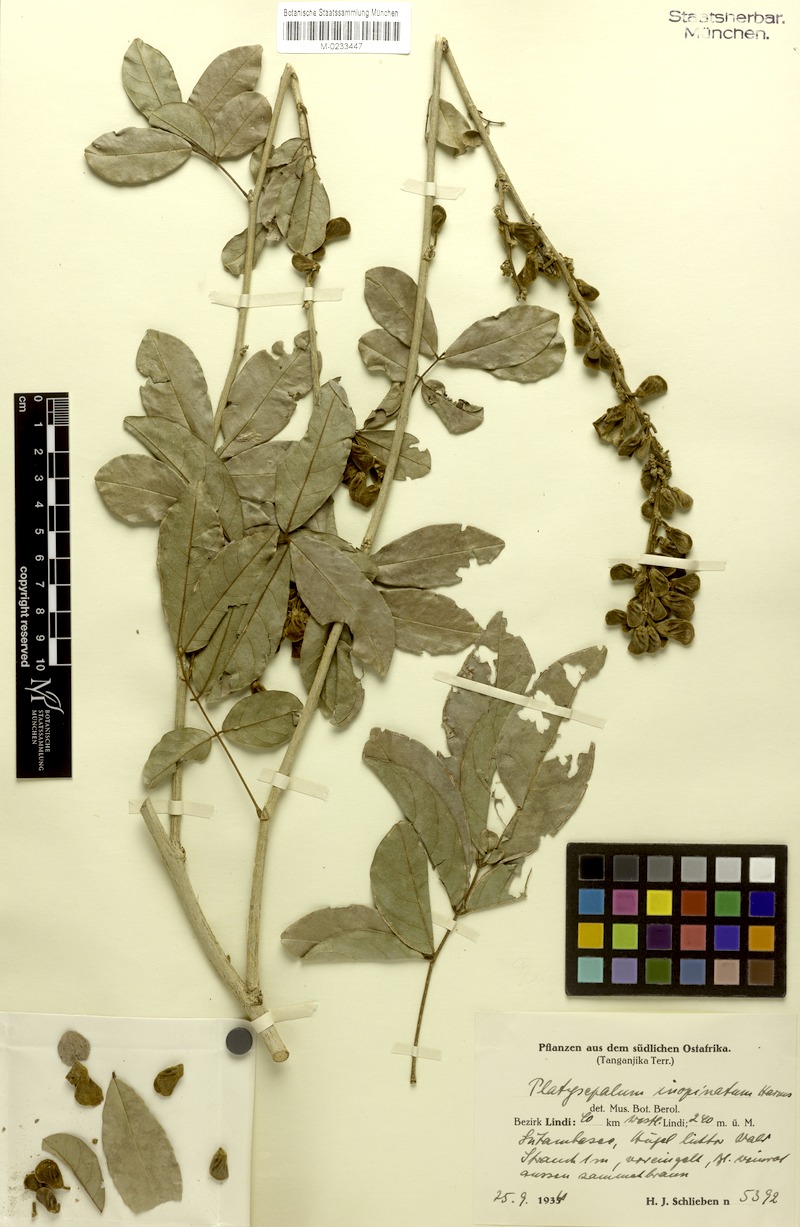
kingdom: Plantae
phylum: Tracheophyta
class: Magnoliopsida
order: Fabales
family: Fabaceae
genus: Platysepalum
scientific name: Platysepalum inopinatum
